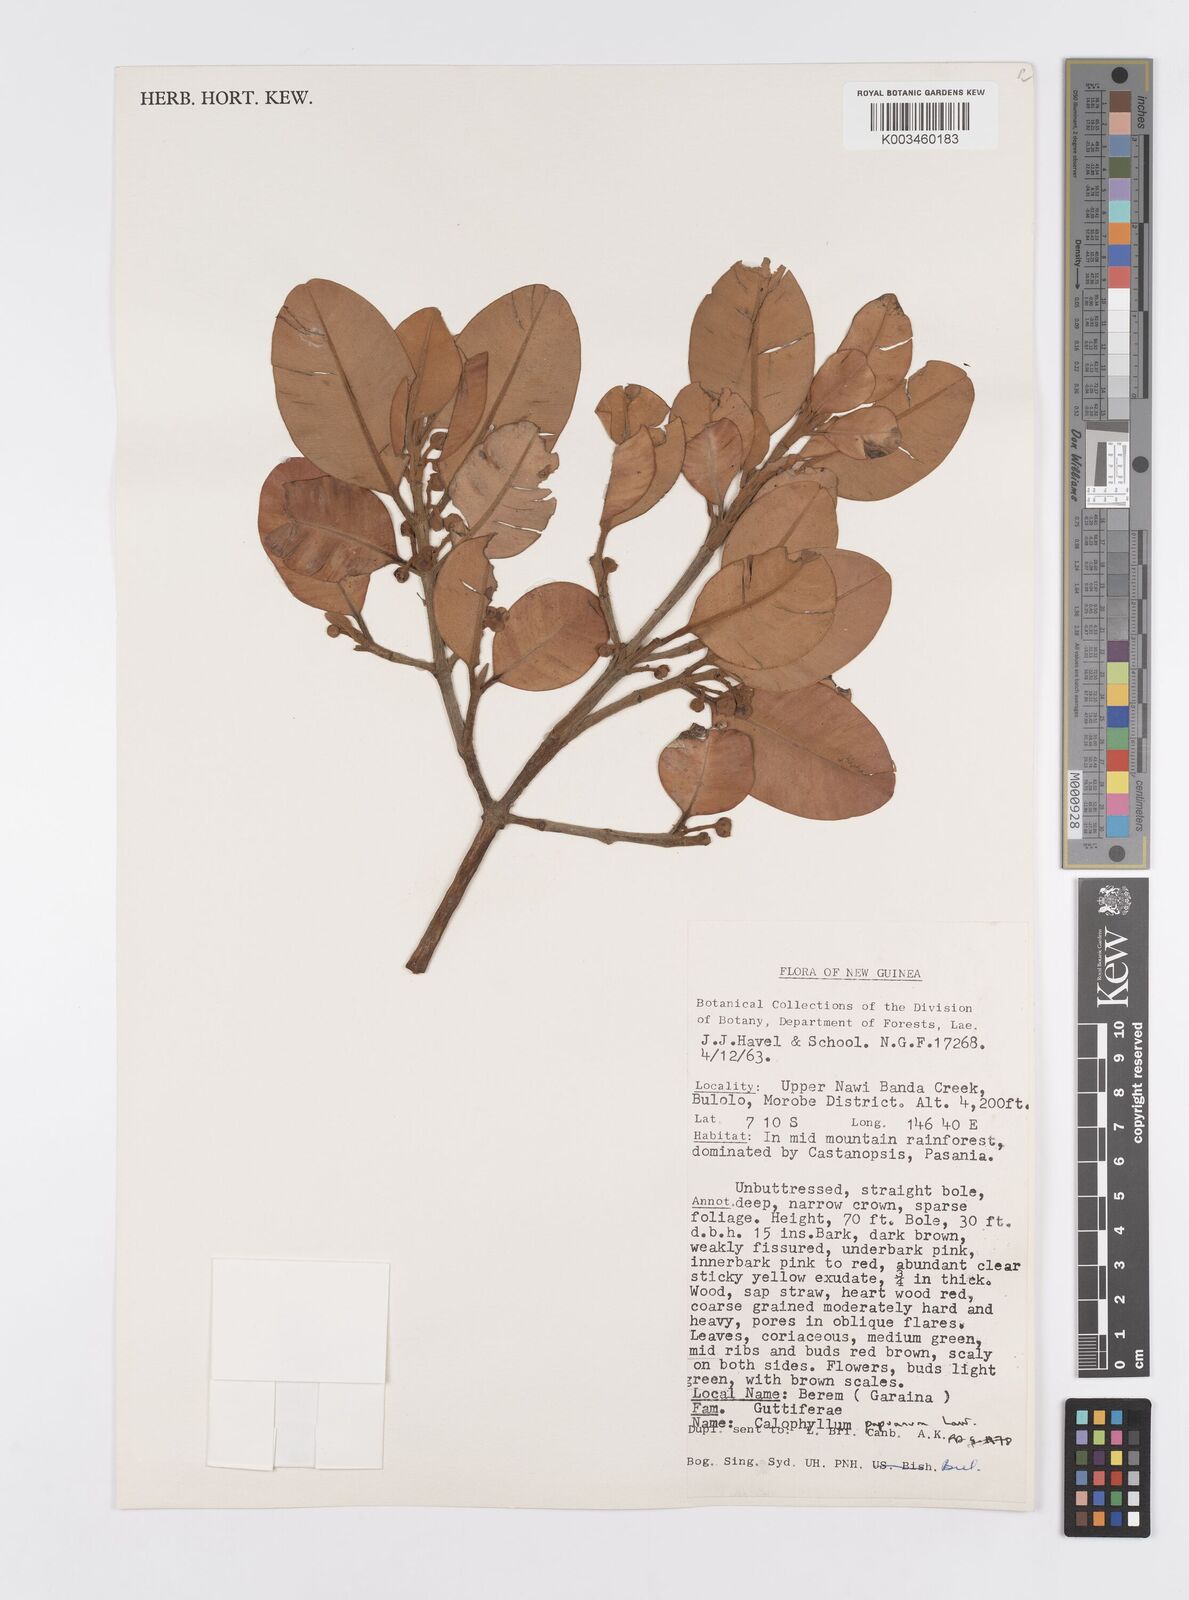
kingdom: Plantae
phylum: Tracheophyta
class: Magnoliopsida
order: Malpighiales
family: Calophyllaceae
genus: Calophyllum
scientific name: Calophyllum papuanum
